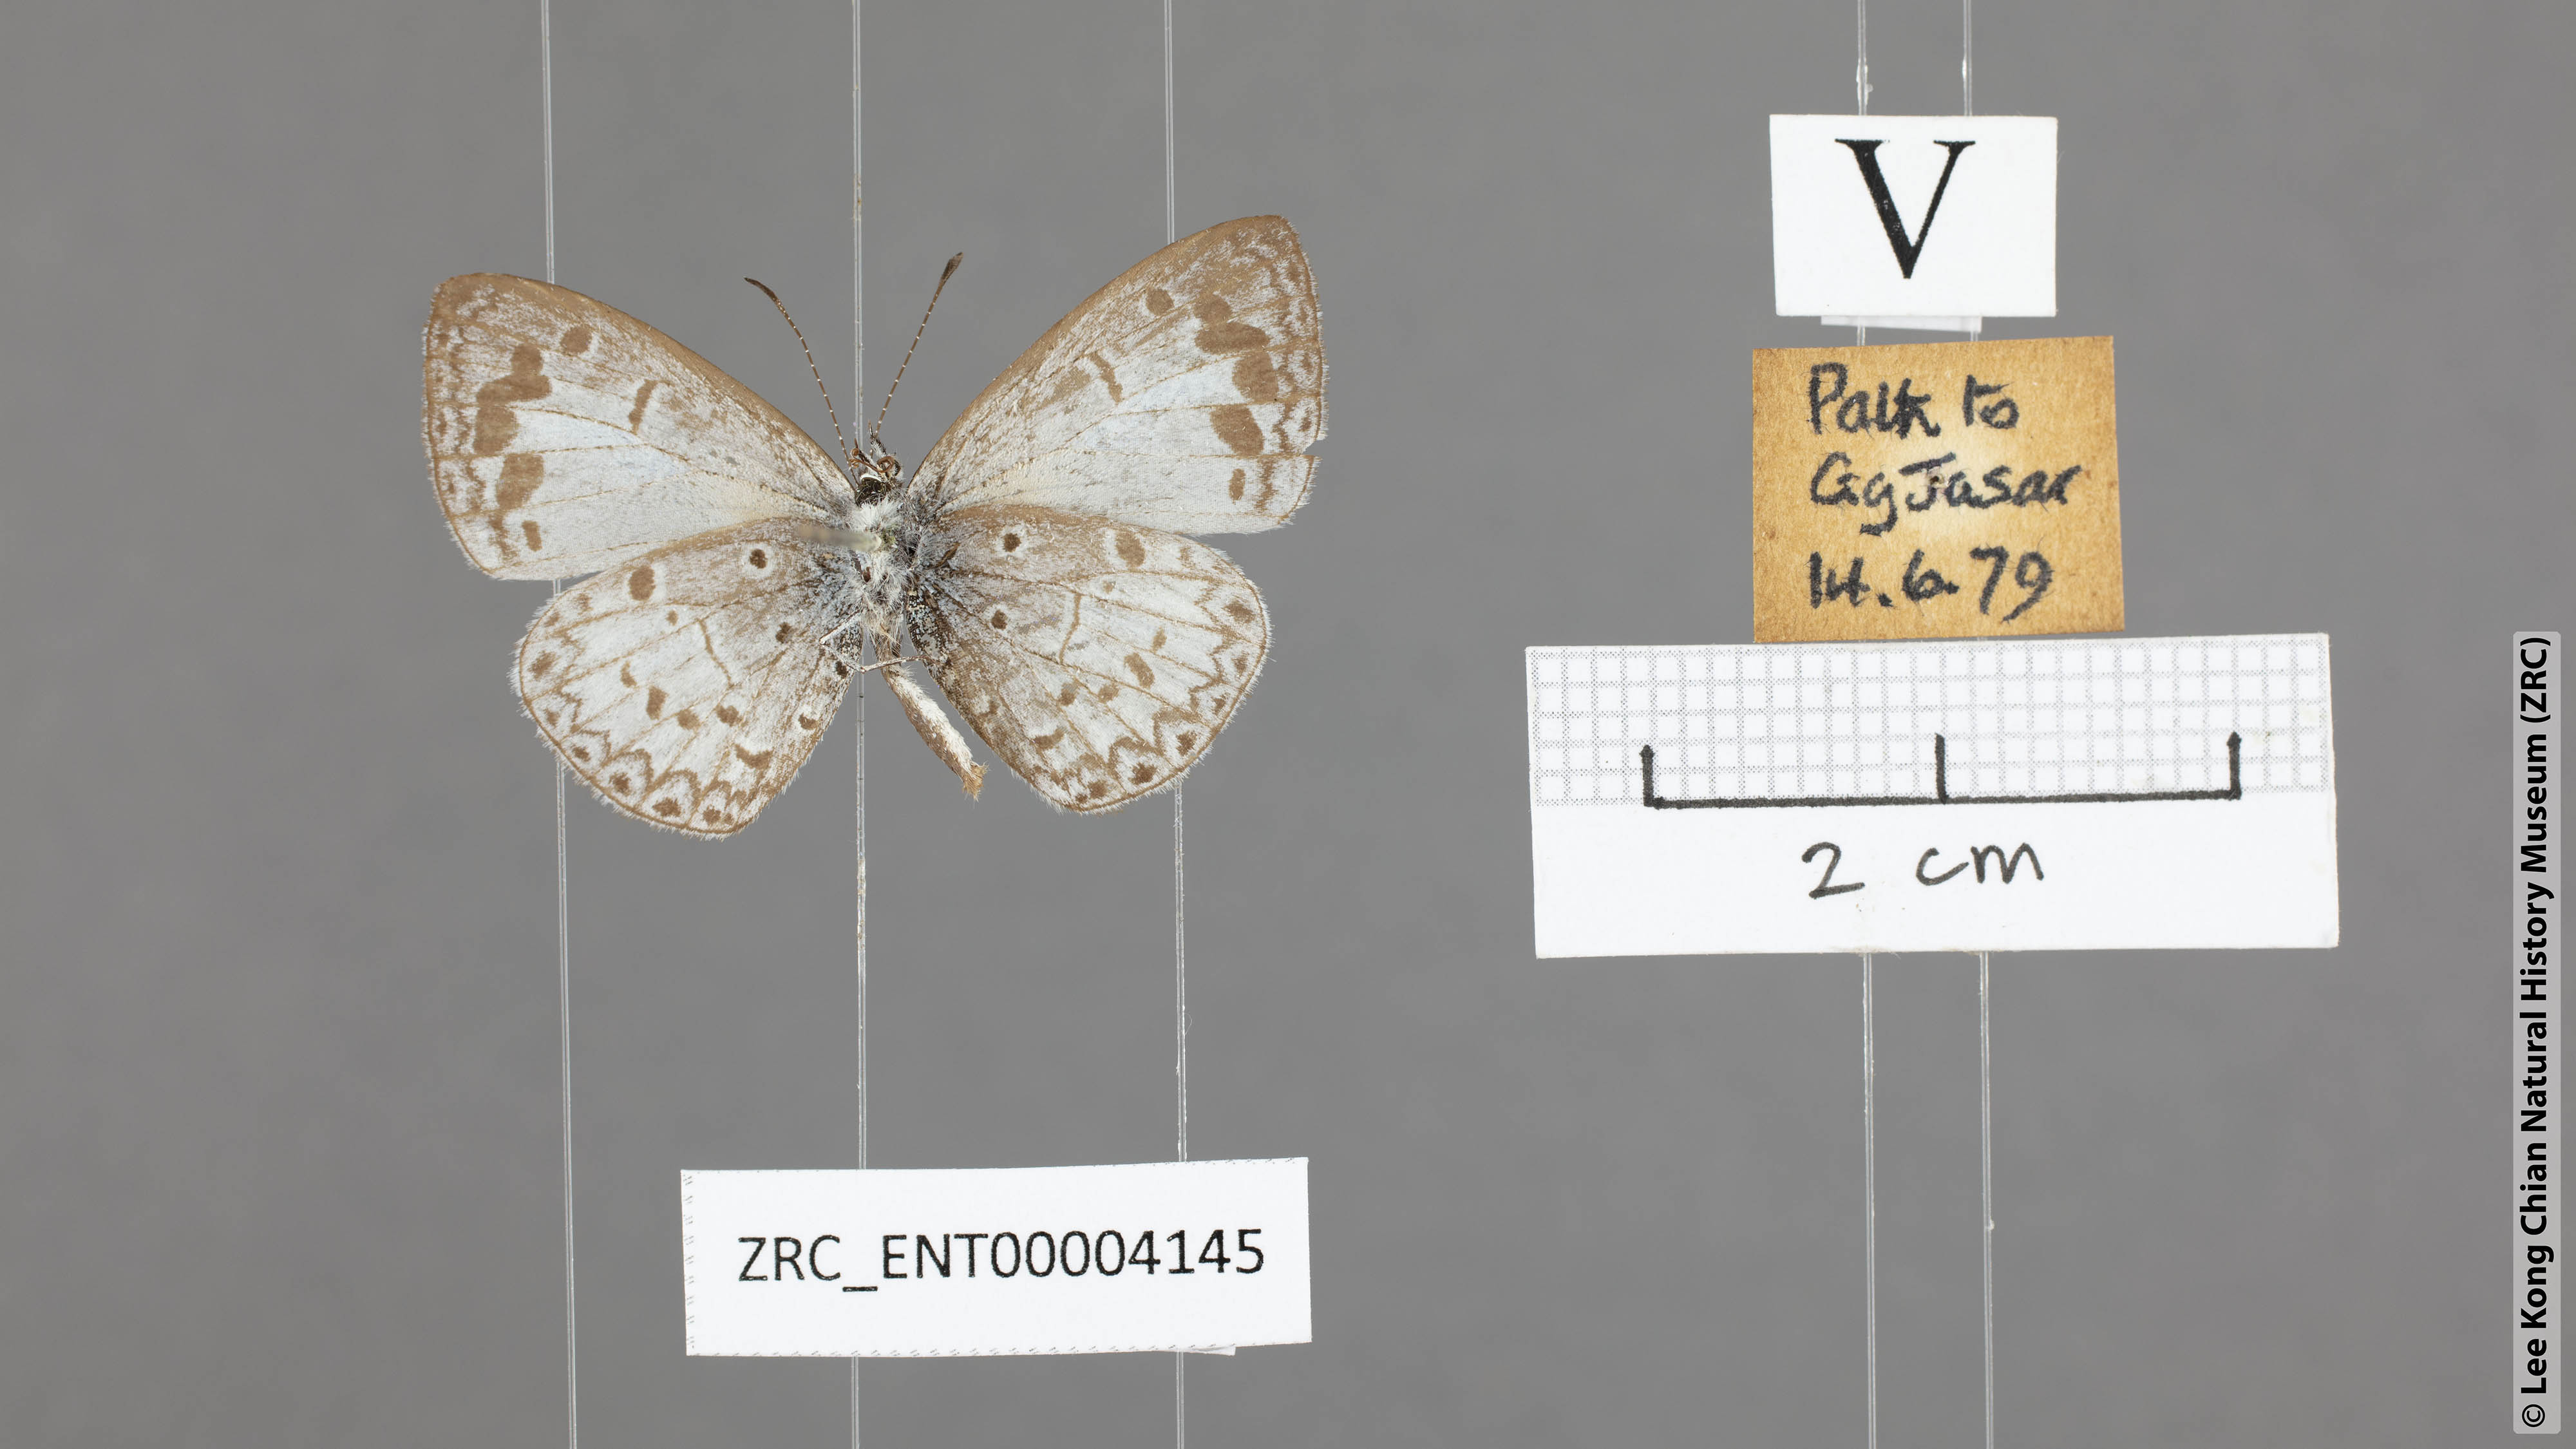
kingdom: Animalia
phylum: Arthropoda
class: Insecta
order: Lepidoptera
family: Lycaenidae
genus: Lycaenopsis
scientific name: Lycaenopsis marginata
